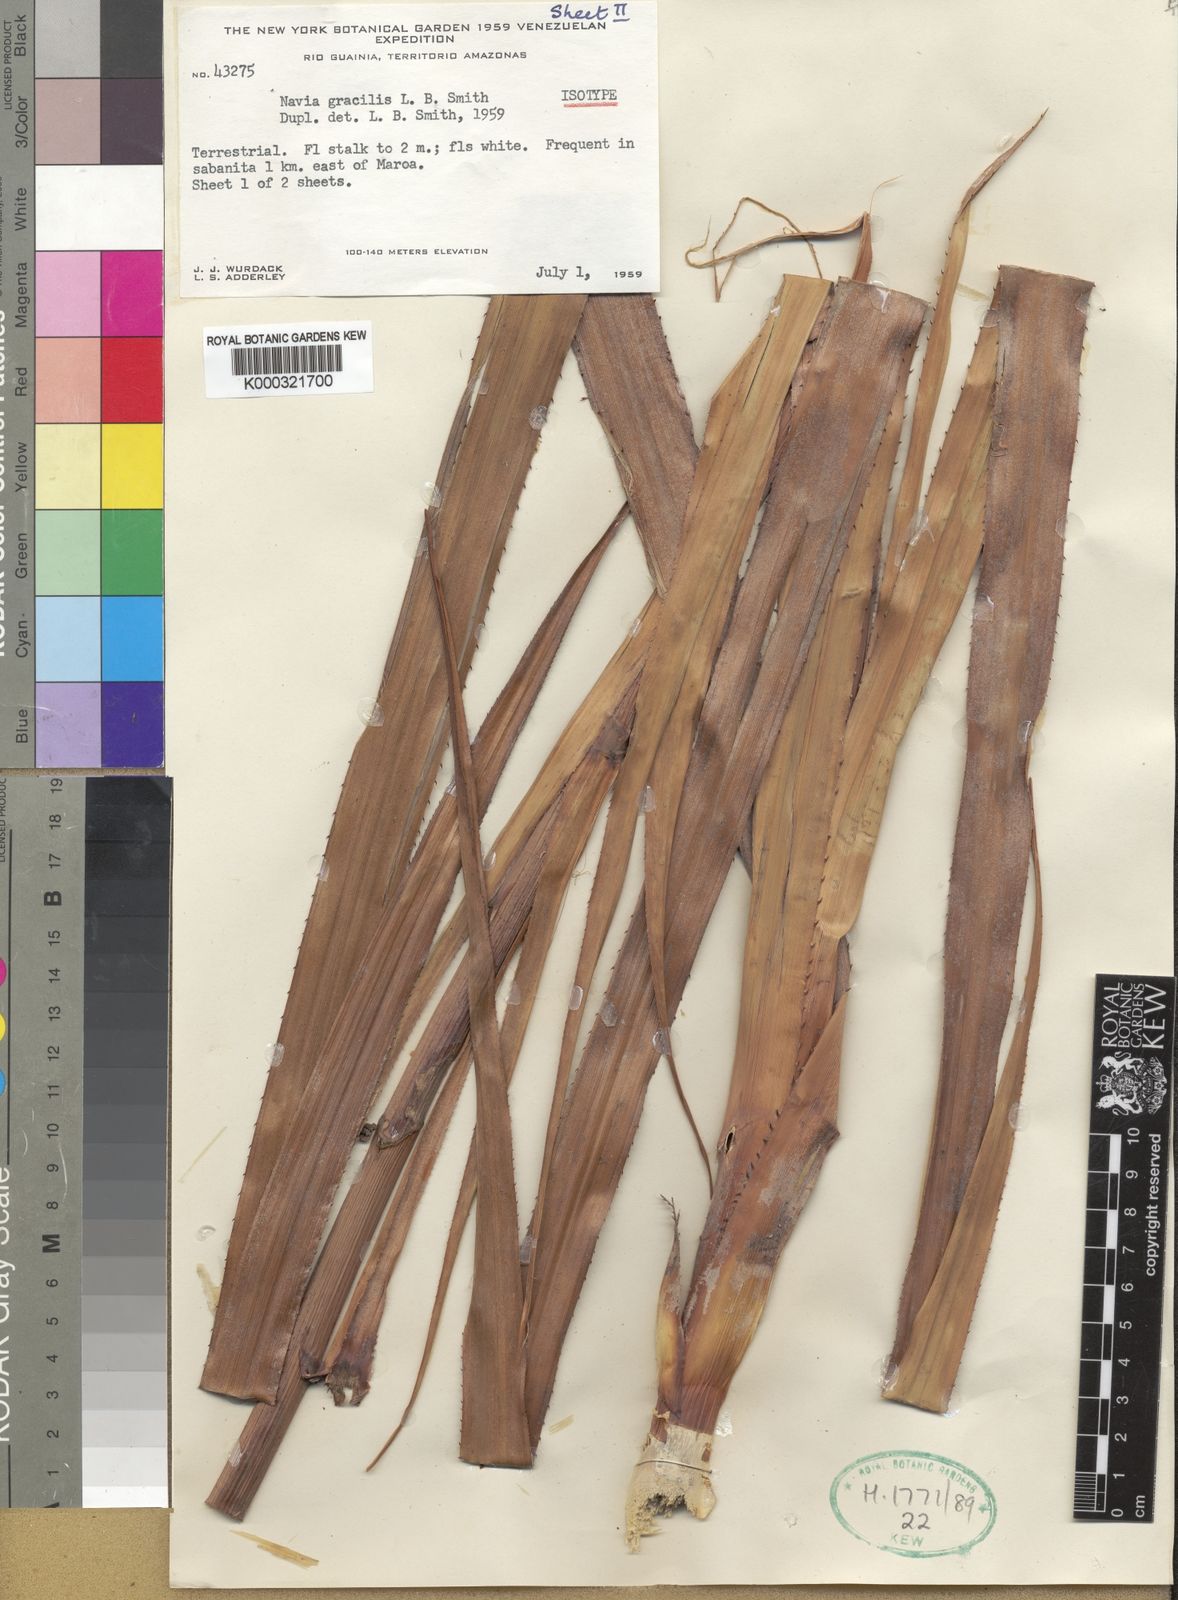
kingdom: Plantae
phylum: Tracheophyta
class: Liliopsida
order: Poales
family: Bromeliaceae
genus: Navia
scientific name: Navia reflexa
